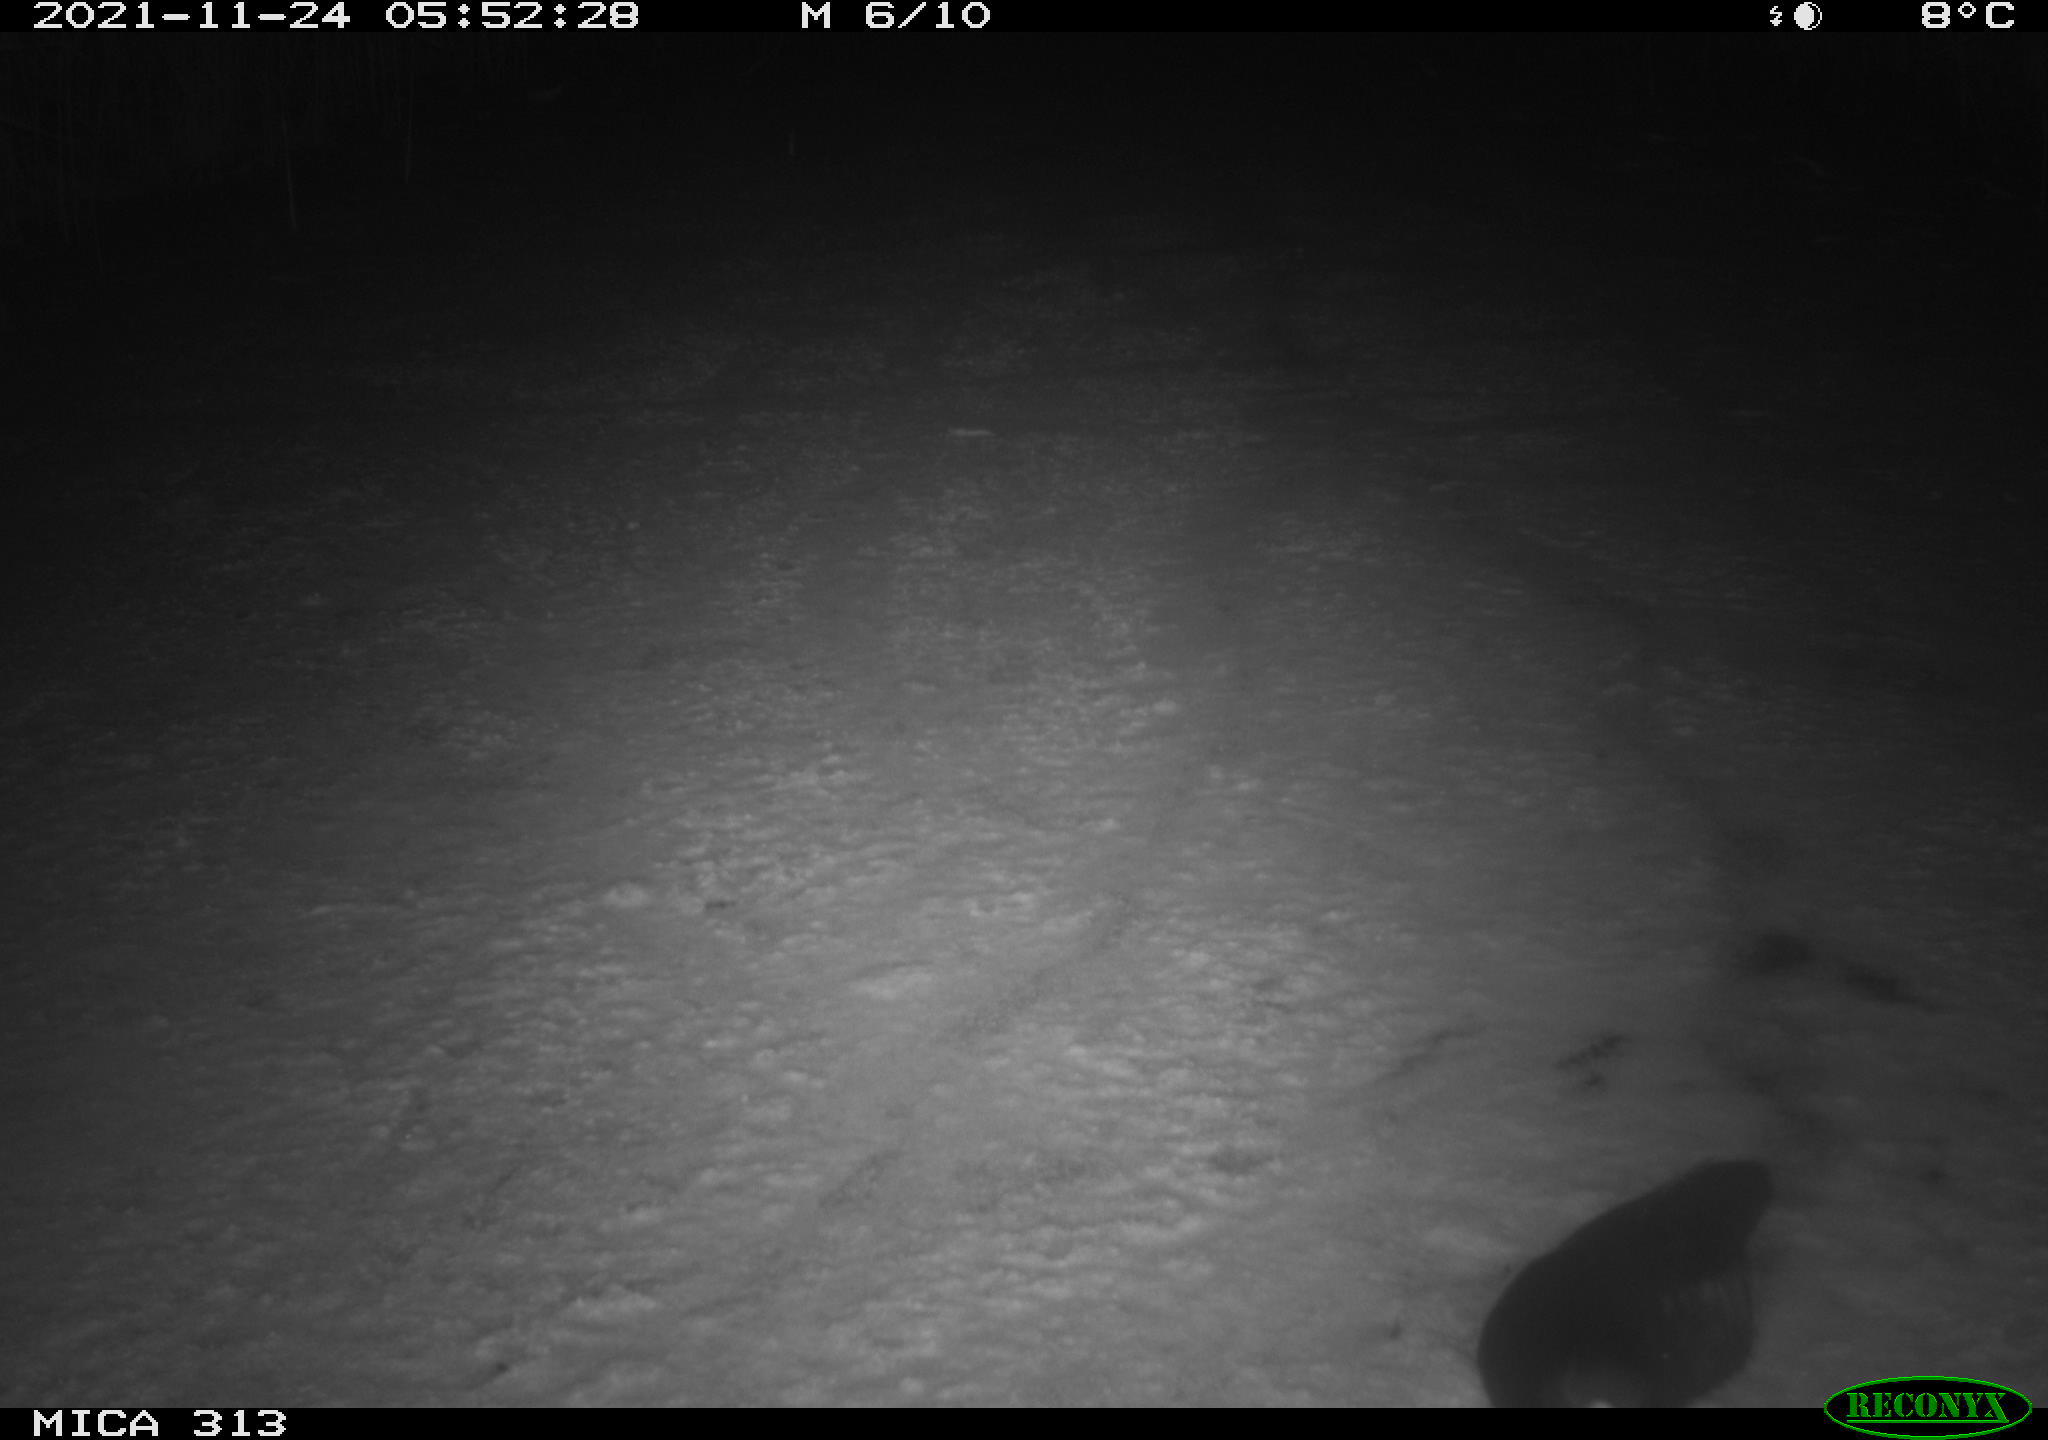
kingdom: Animalia
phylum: Chordata
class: Aves
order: Gruiformes
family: Rallidae
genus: Gallinula
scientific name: Gallinula chloropus
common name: Common moorhen
